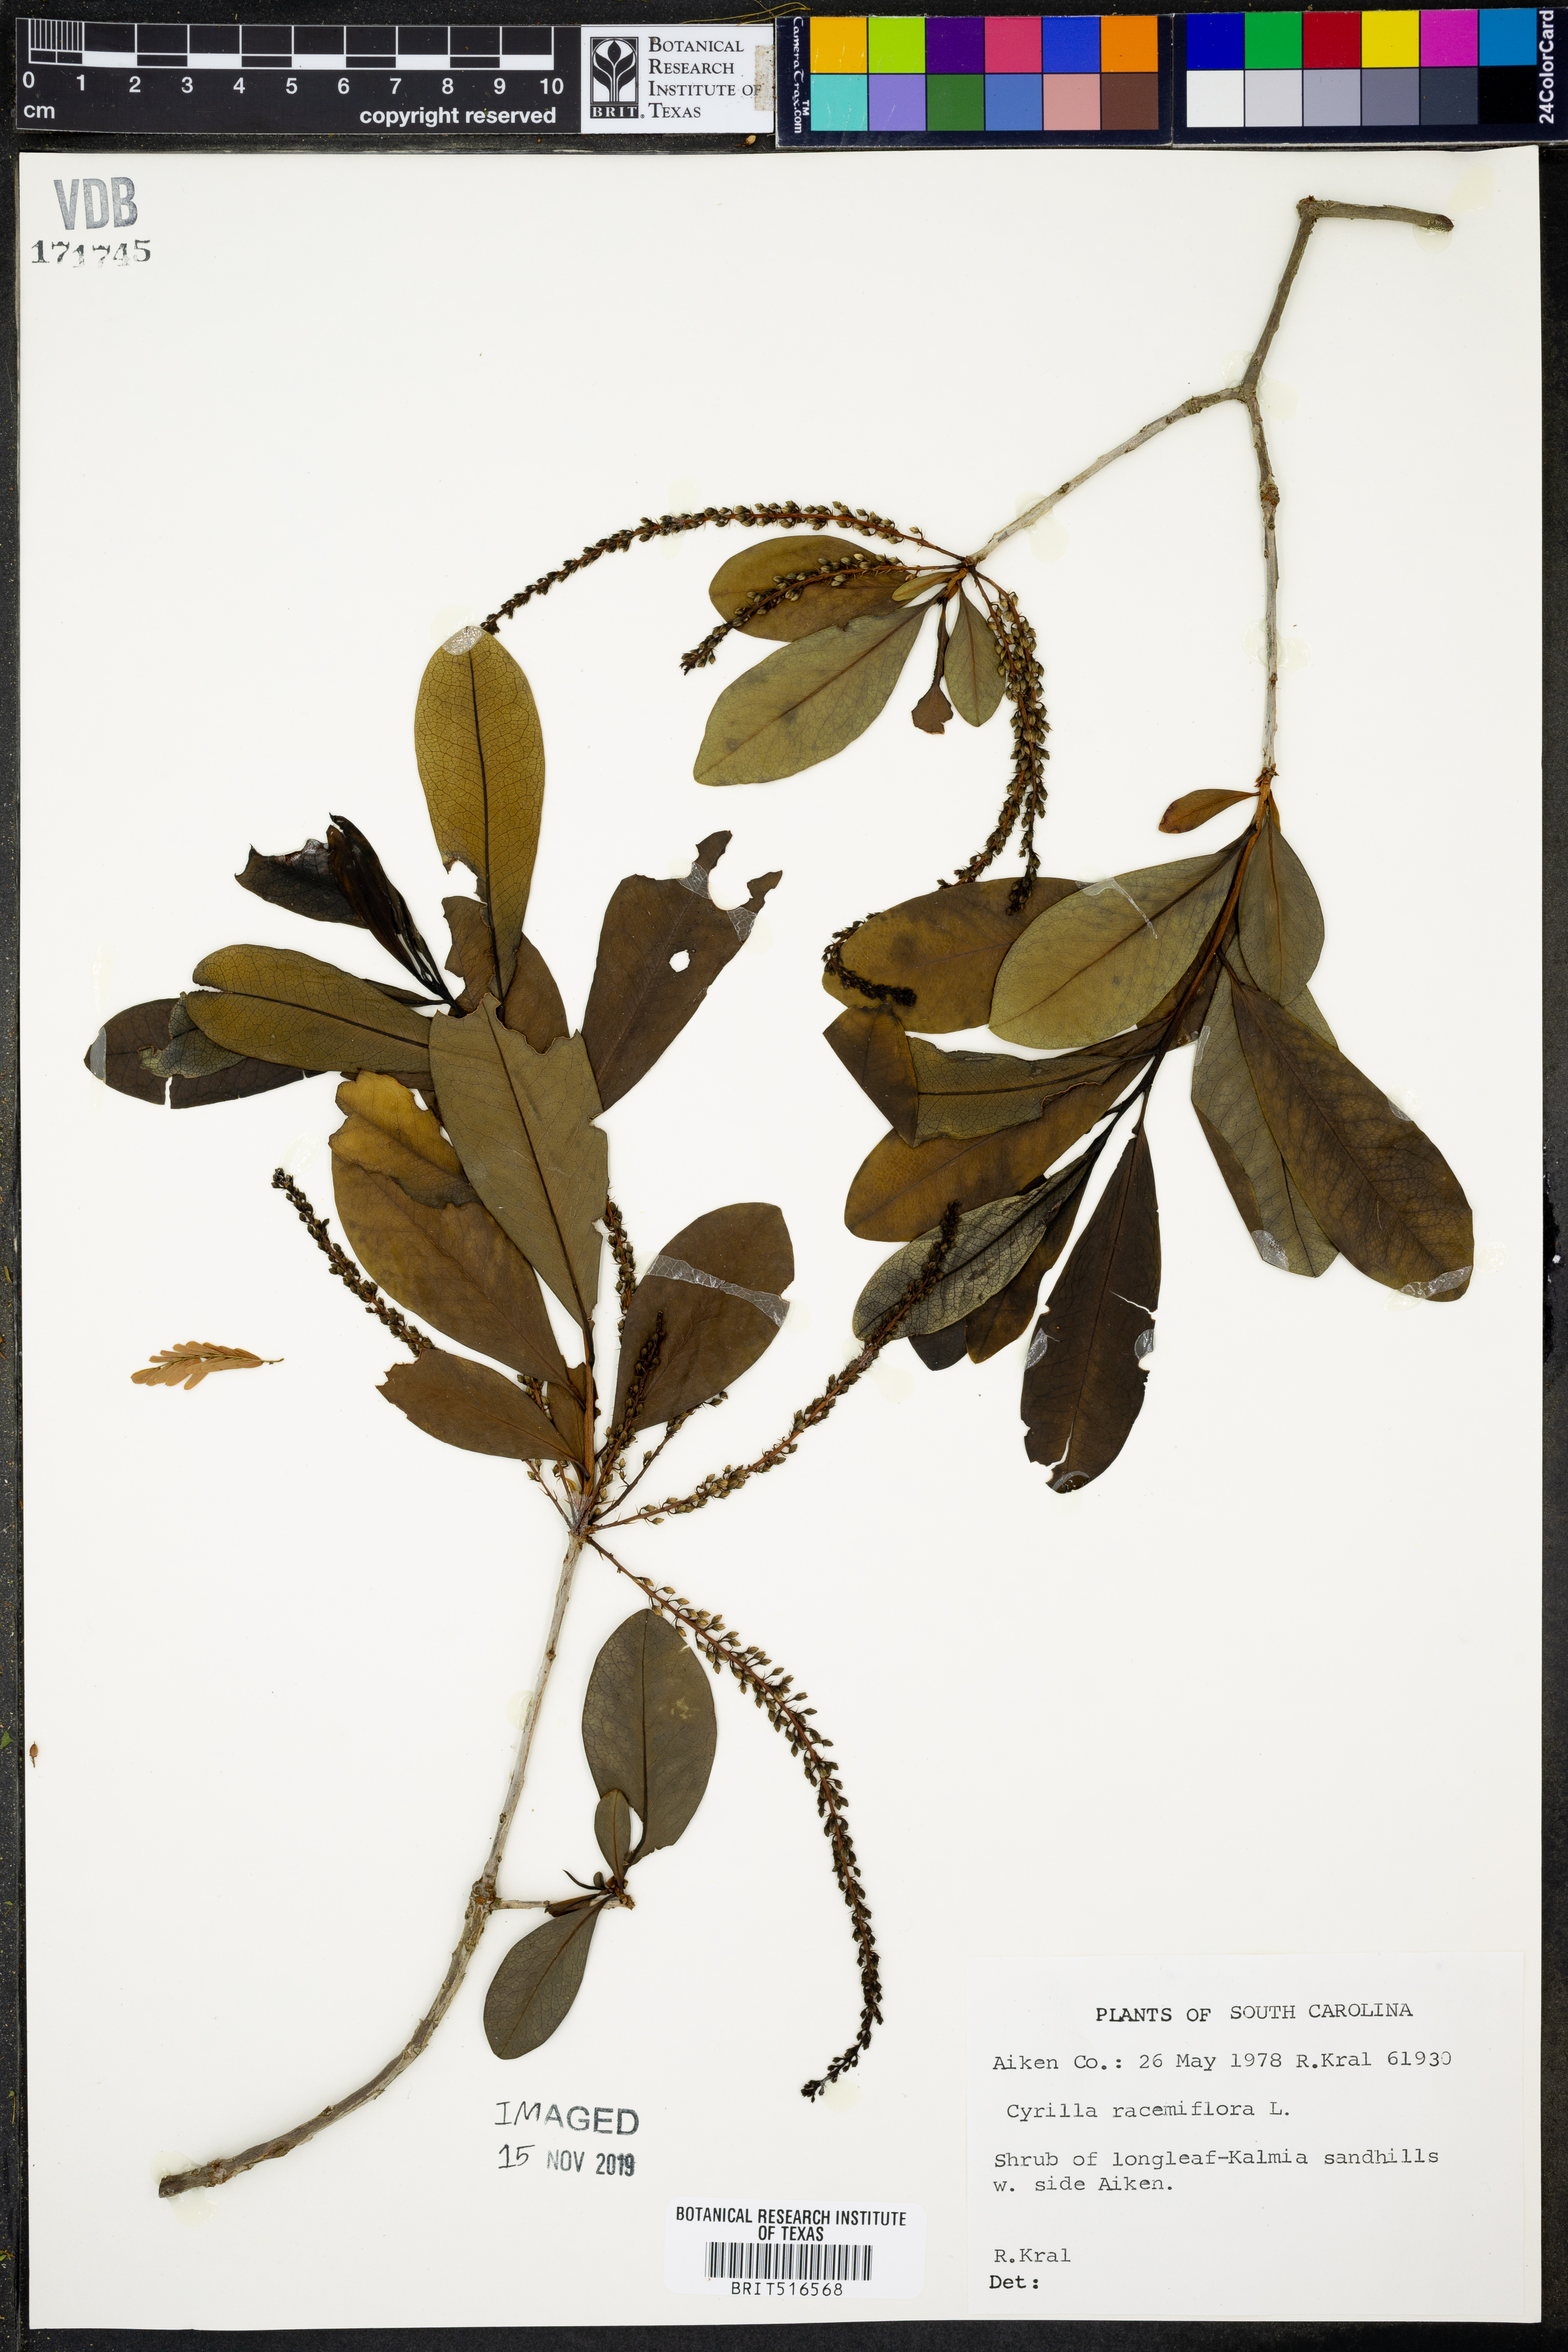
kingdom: Plantae
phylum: Tracheophyta
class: Magnoliopsida
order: Ericales
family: Cyrillaceae
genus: Cyrilla
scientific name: Cyrilla racemiflora
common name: Black titi
